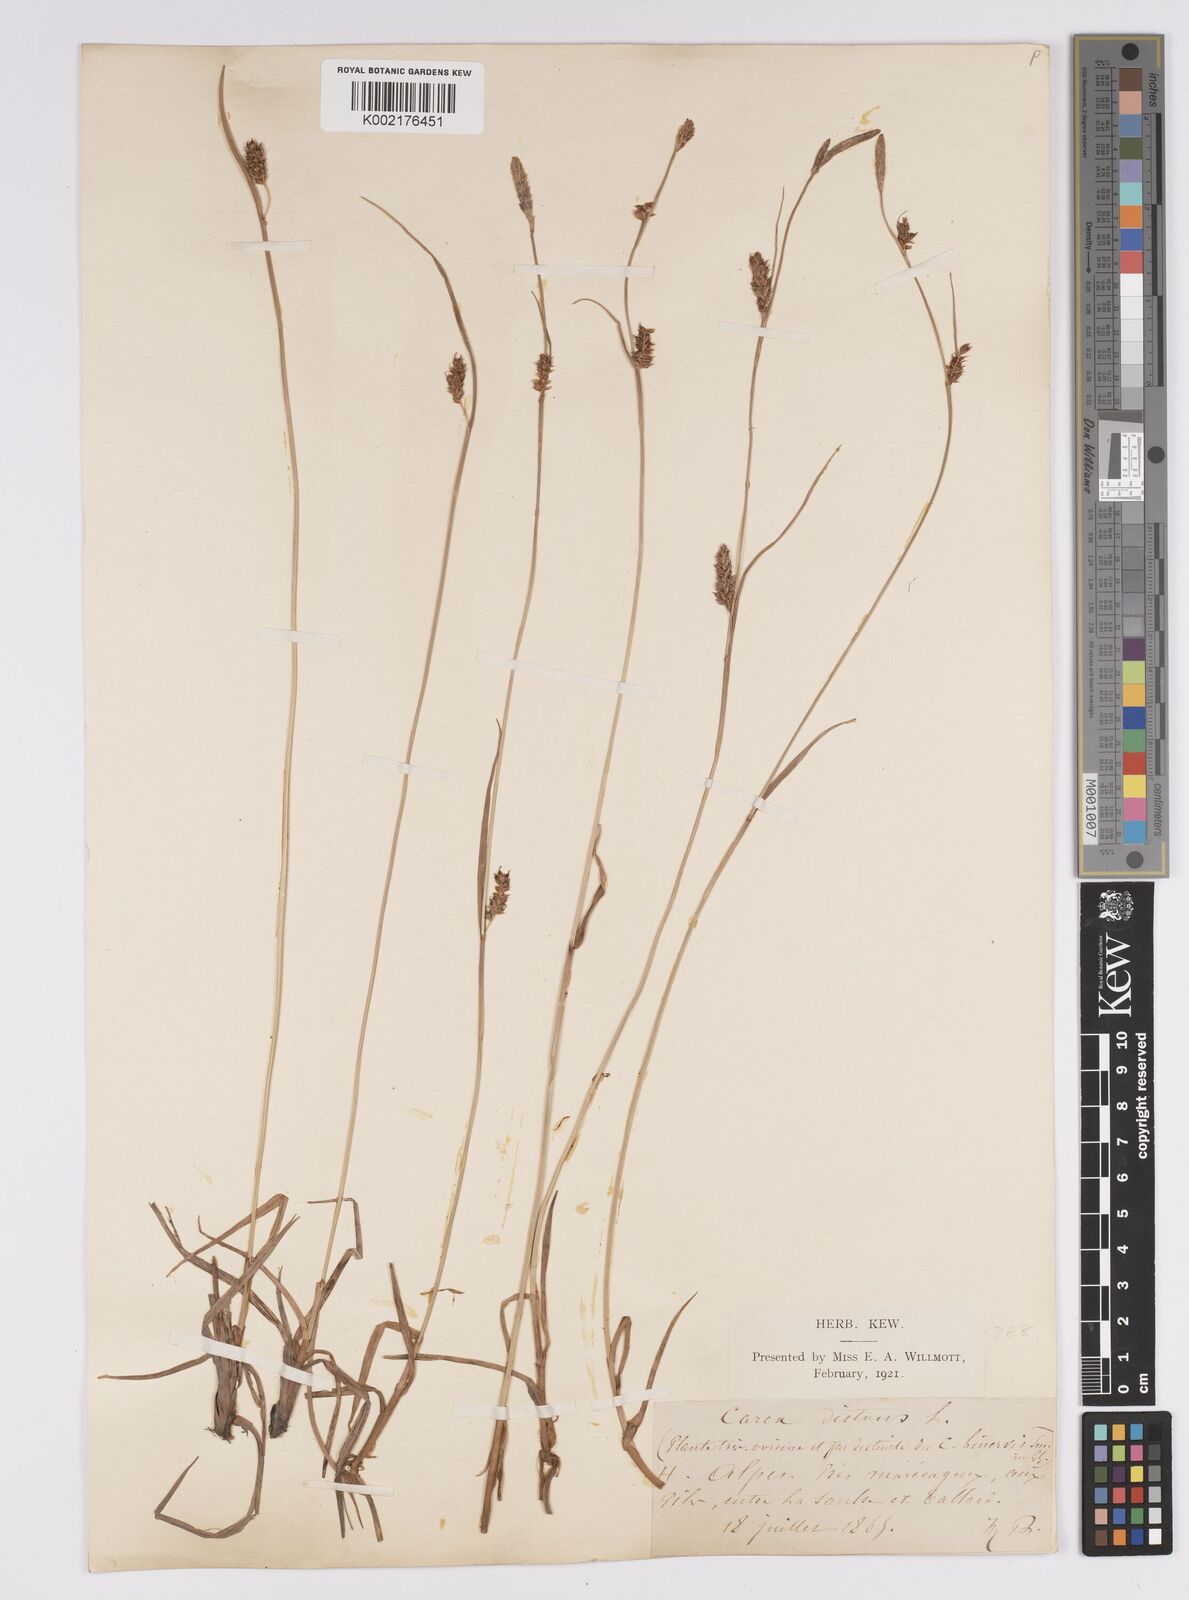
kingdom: Plantae
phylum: Tracheophyta
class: Liliopsida
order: Poales
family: Cyperaceae
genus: Carex
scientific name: Carex distans
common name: Distant sedge
